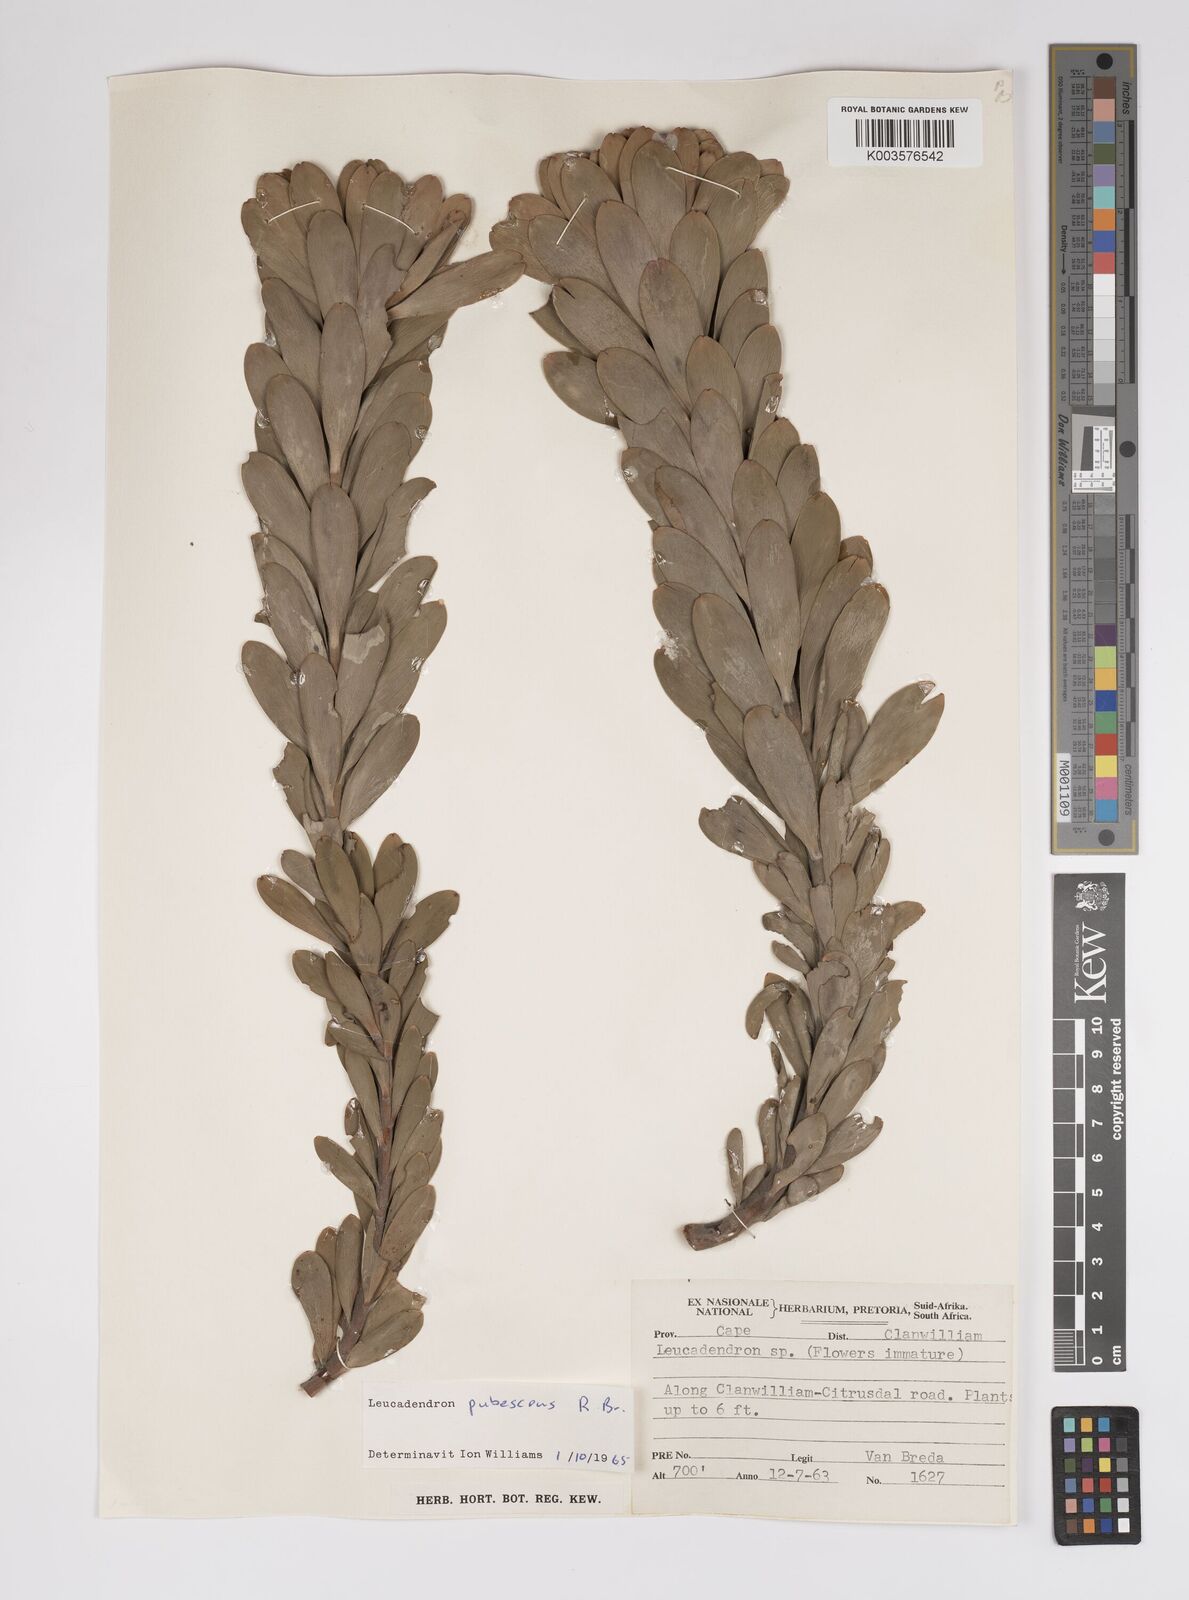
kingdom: Plantae
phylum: Tracheophyta
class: Magnoliopsida
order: Proteales
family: Proteaceae
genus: Leucadendron
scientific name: Leucadendron pubescens
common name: Grey conebush
